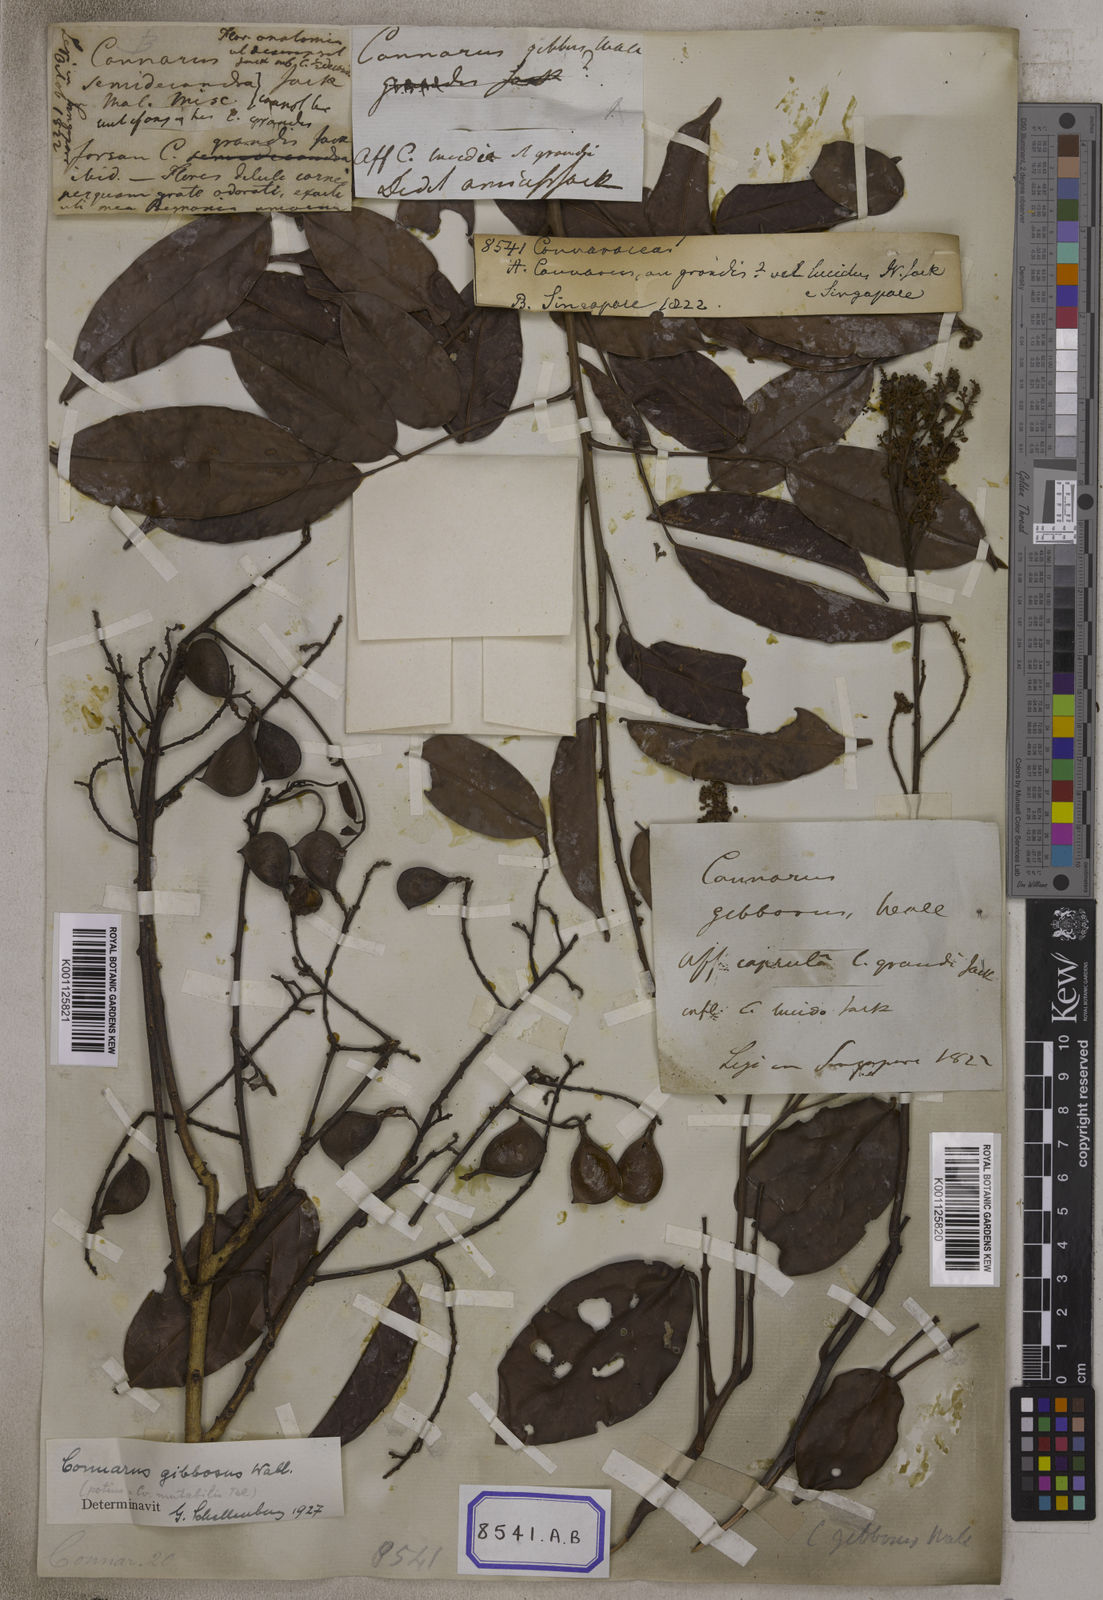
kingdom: Plantae
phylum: Tracheophyta
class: Magnoliopsida
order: Oxalidales
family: Connaraceae
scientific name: Connaraceae
